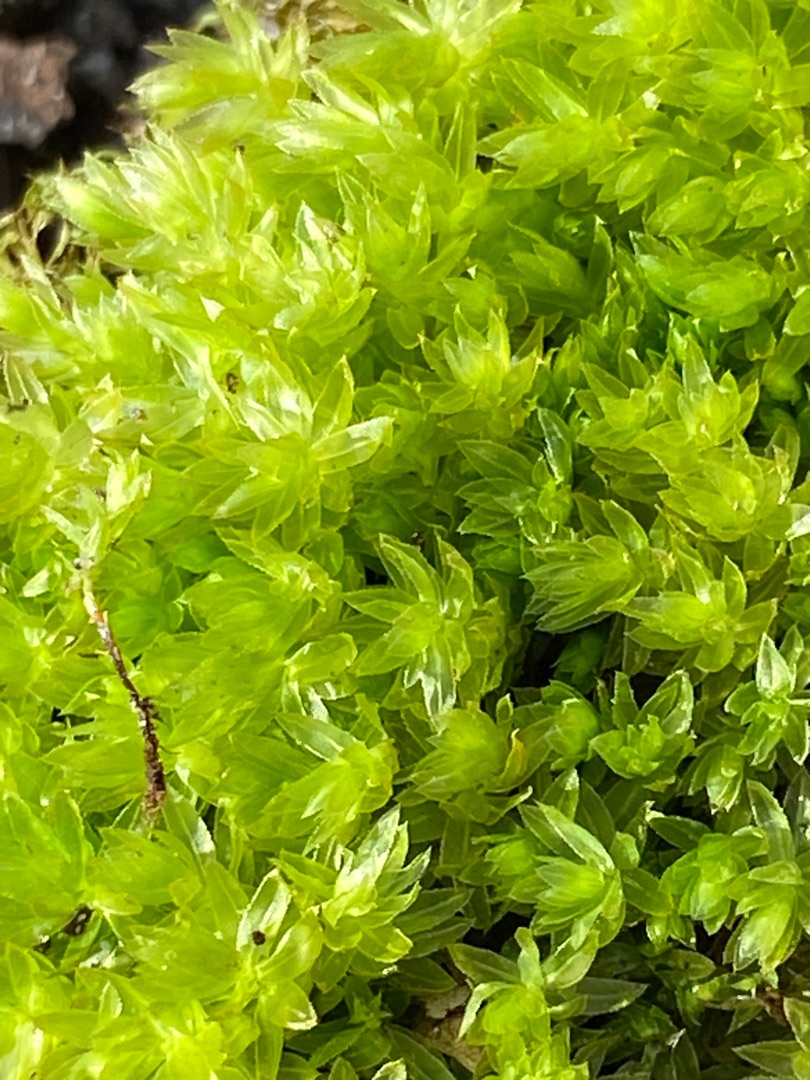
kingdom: Plantae
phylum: Bryophyta
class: Bryopsida
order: Bryales
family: Mniaceae
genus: Mnium
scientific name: Mnium hornum
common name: Brunfiltet stjernemos
